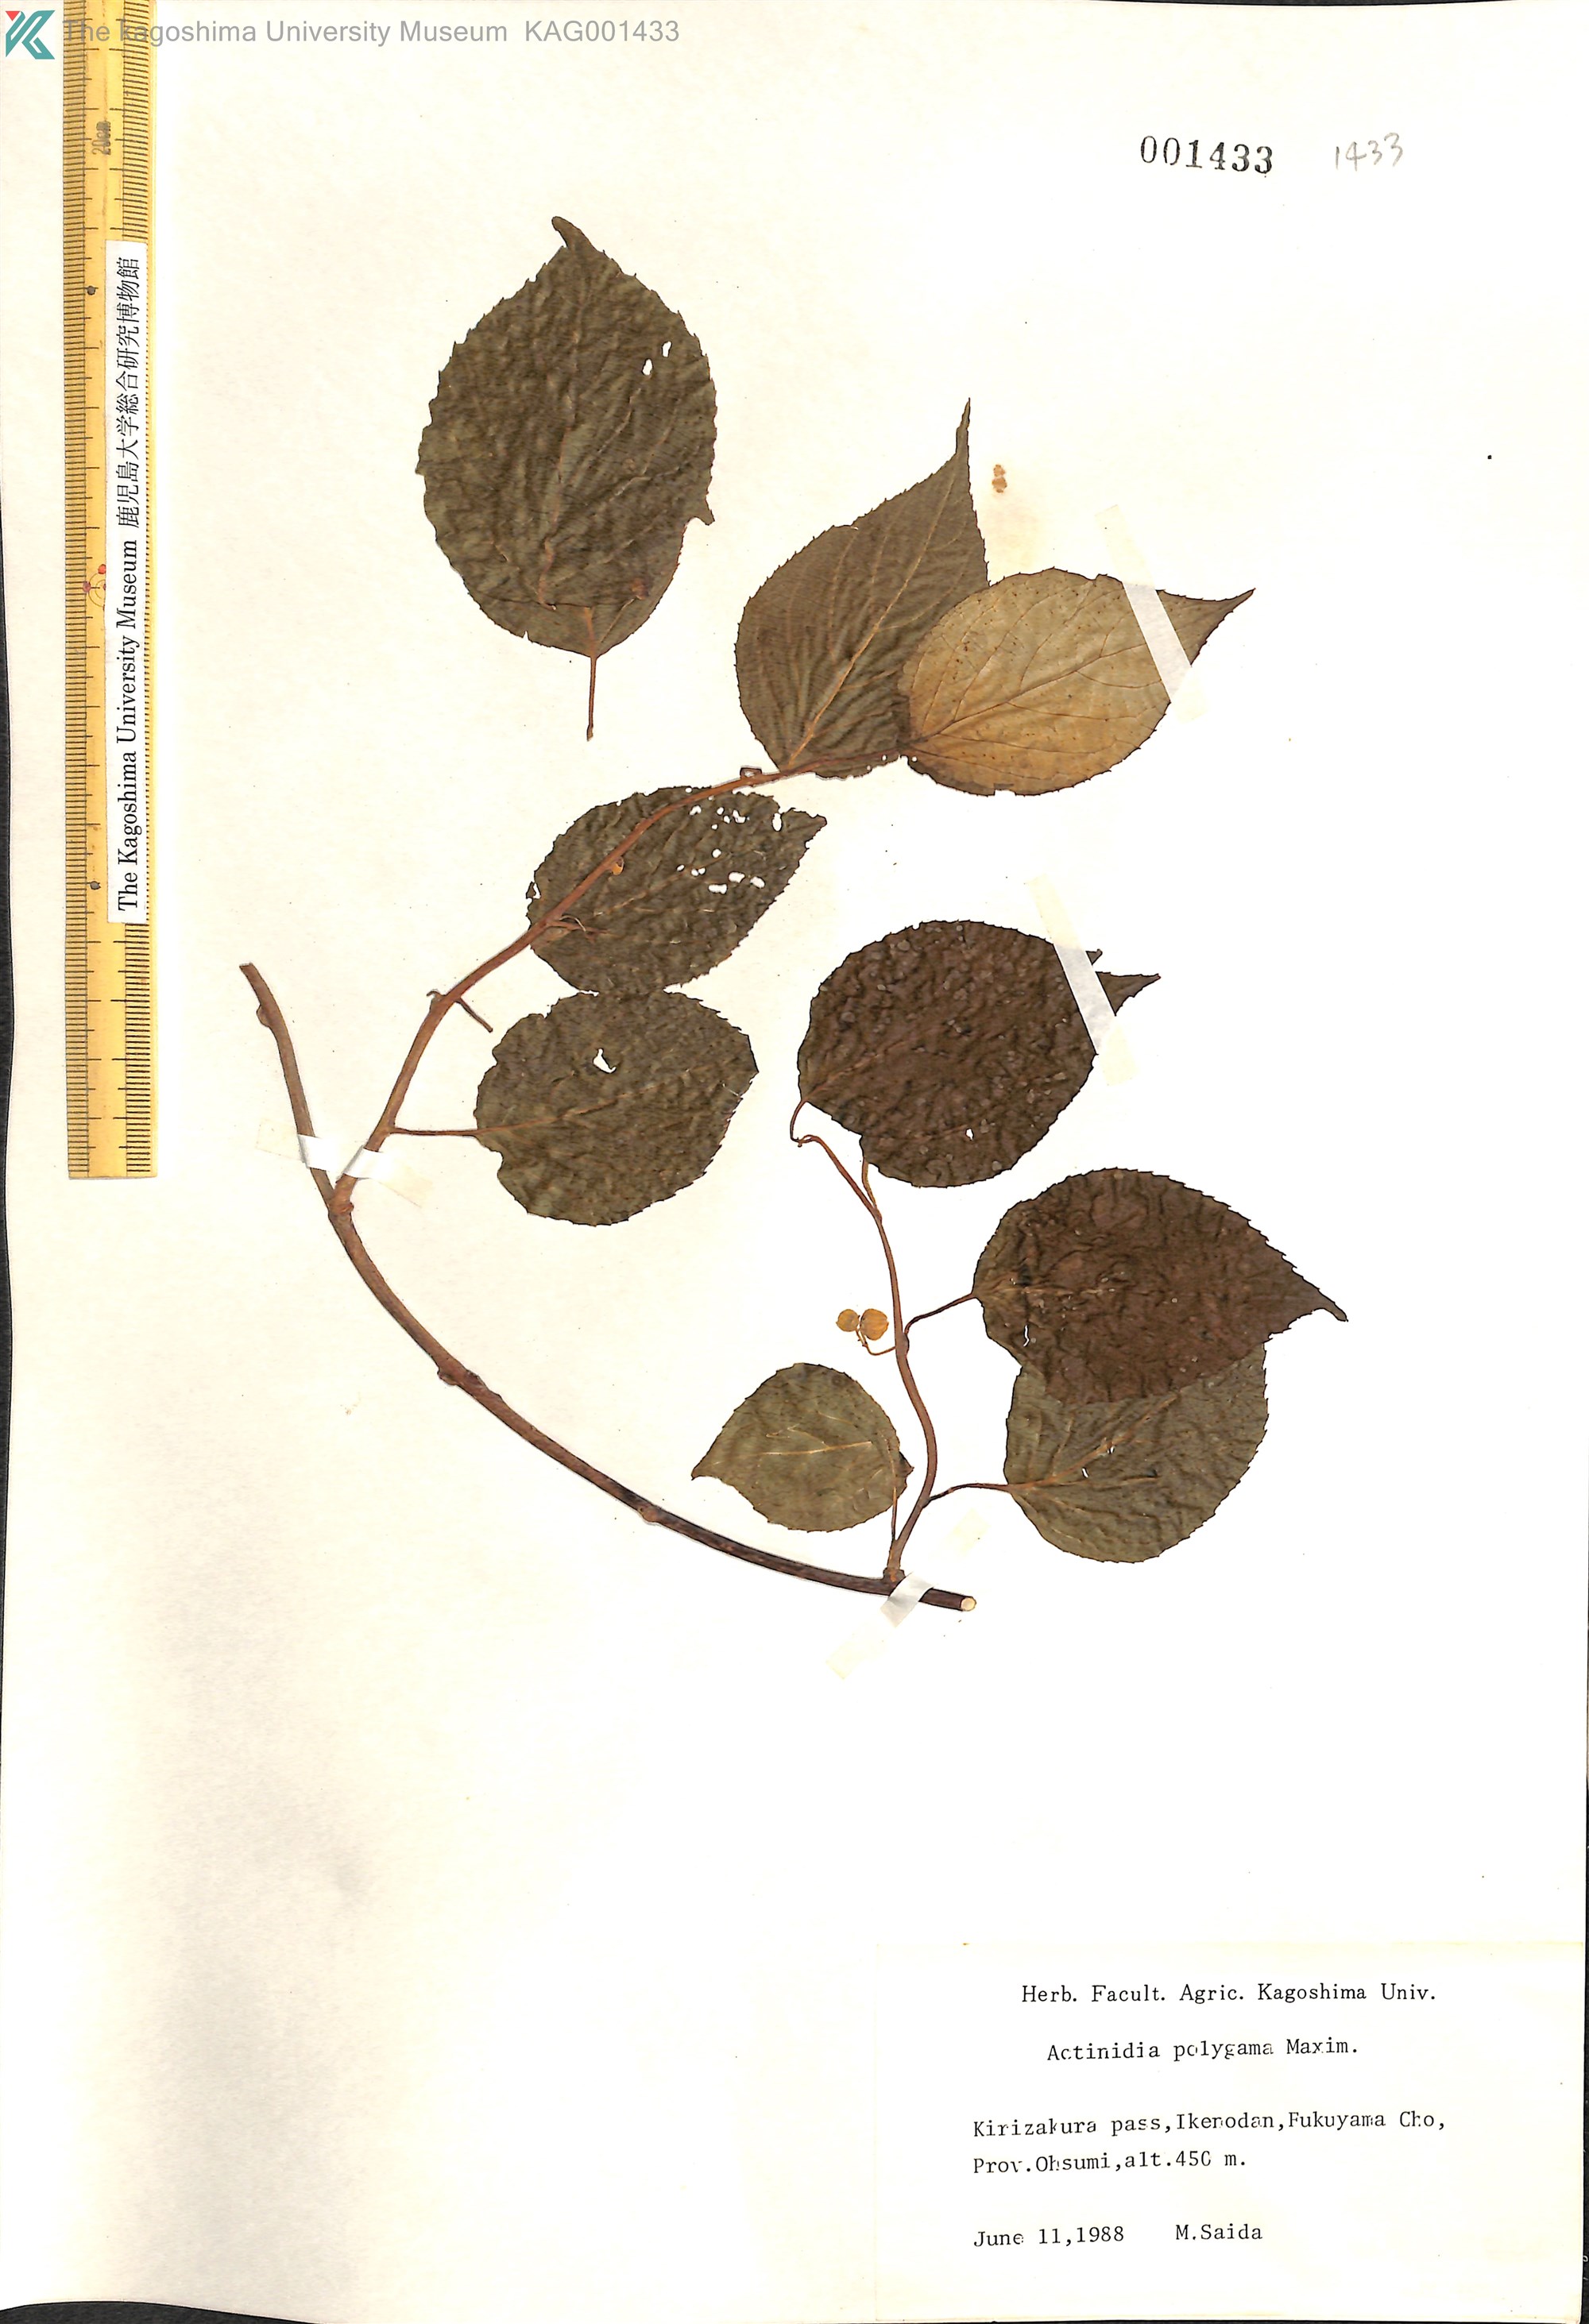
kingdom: Plantae
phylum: Tracheophyta
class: Magnoliopsida
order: Ericales
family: Actinidiaceae
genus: Actinidia
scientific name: Actinidia polygama
